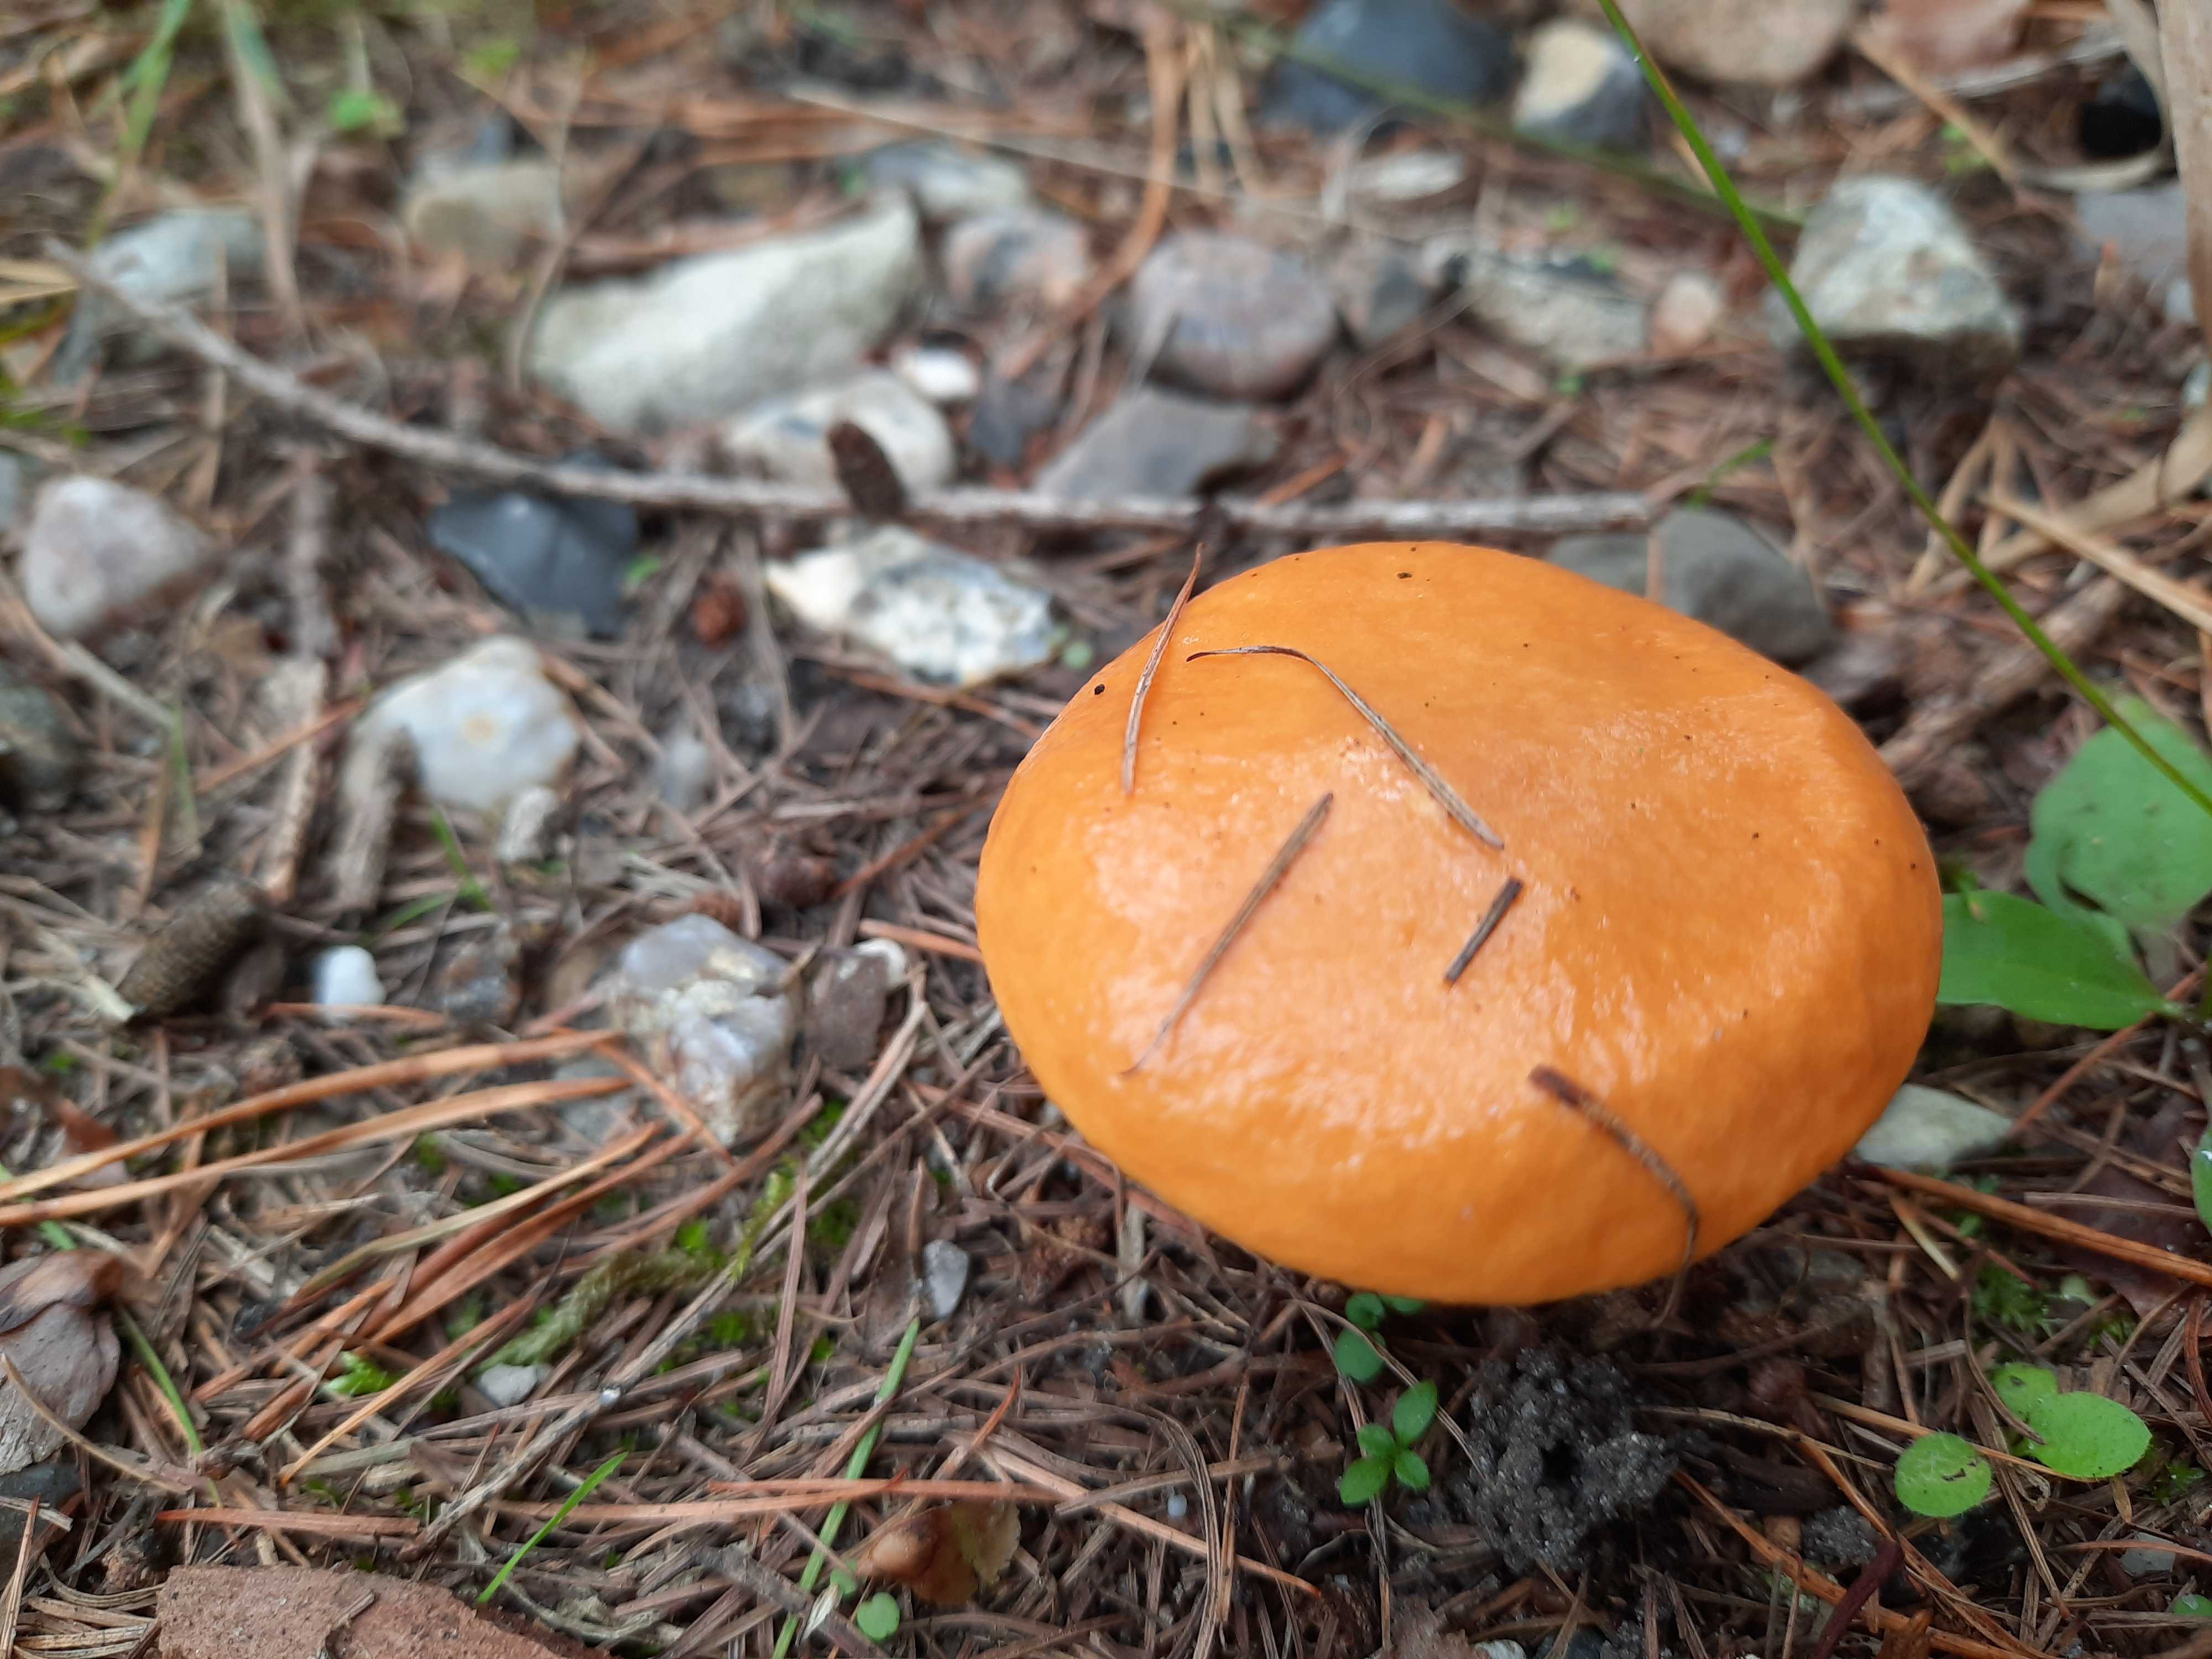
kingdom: Fungi
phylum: Basidiomycota
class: Agaricomycetes
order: Boletales
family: Suillaceae
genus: Suillus
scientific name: Suillus grevillei
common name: lærke-slimrørhat
